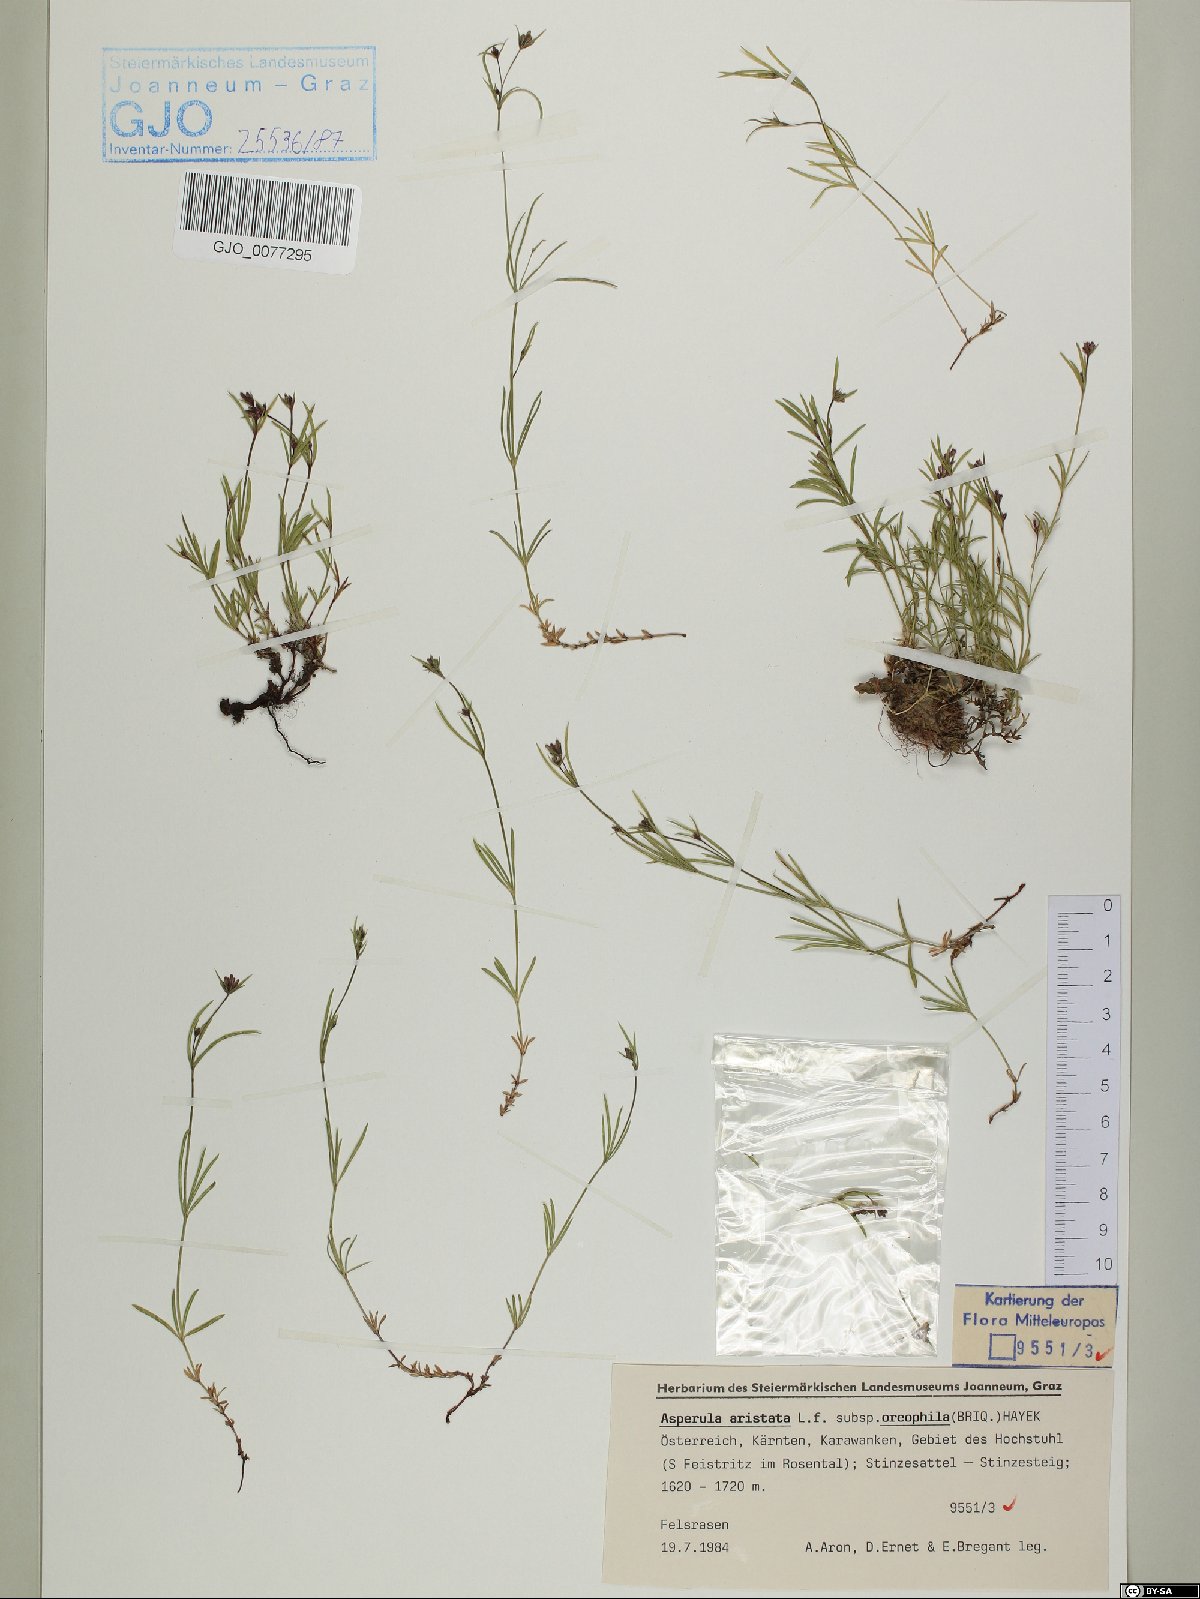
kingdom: Plantae
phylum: Tracheophyta
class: Magnoliopsida
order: Gentianales
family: Rubiaceae
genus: Cynanchica
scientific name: Cynanchica aristata
